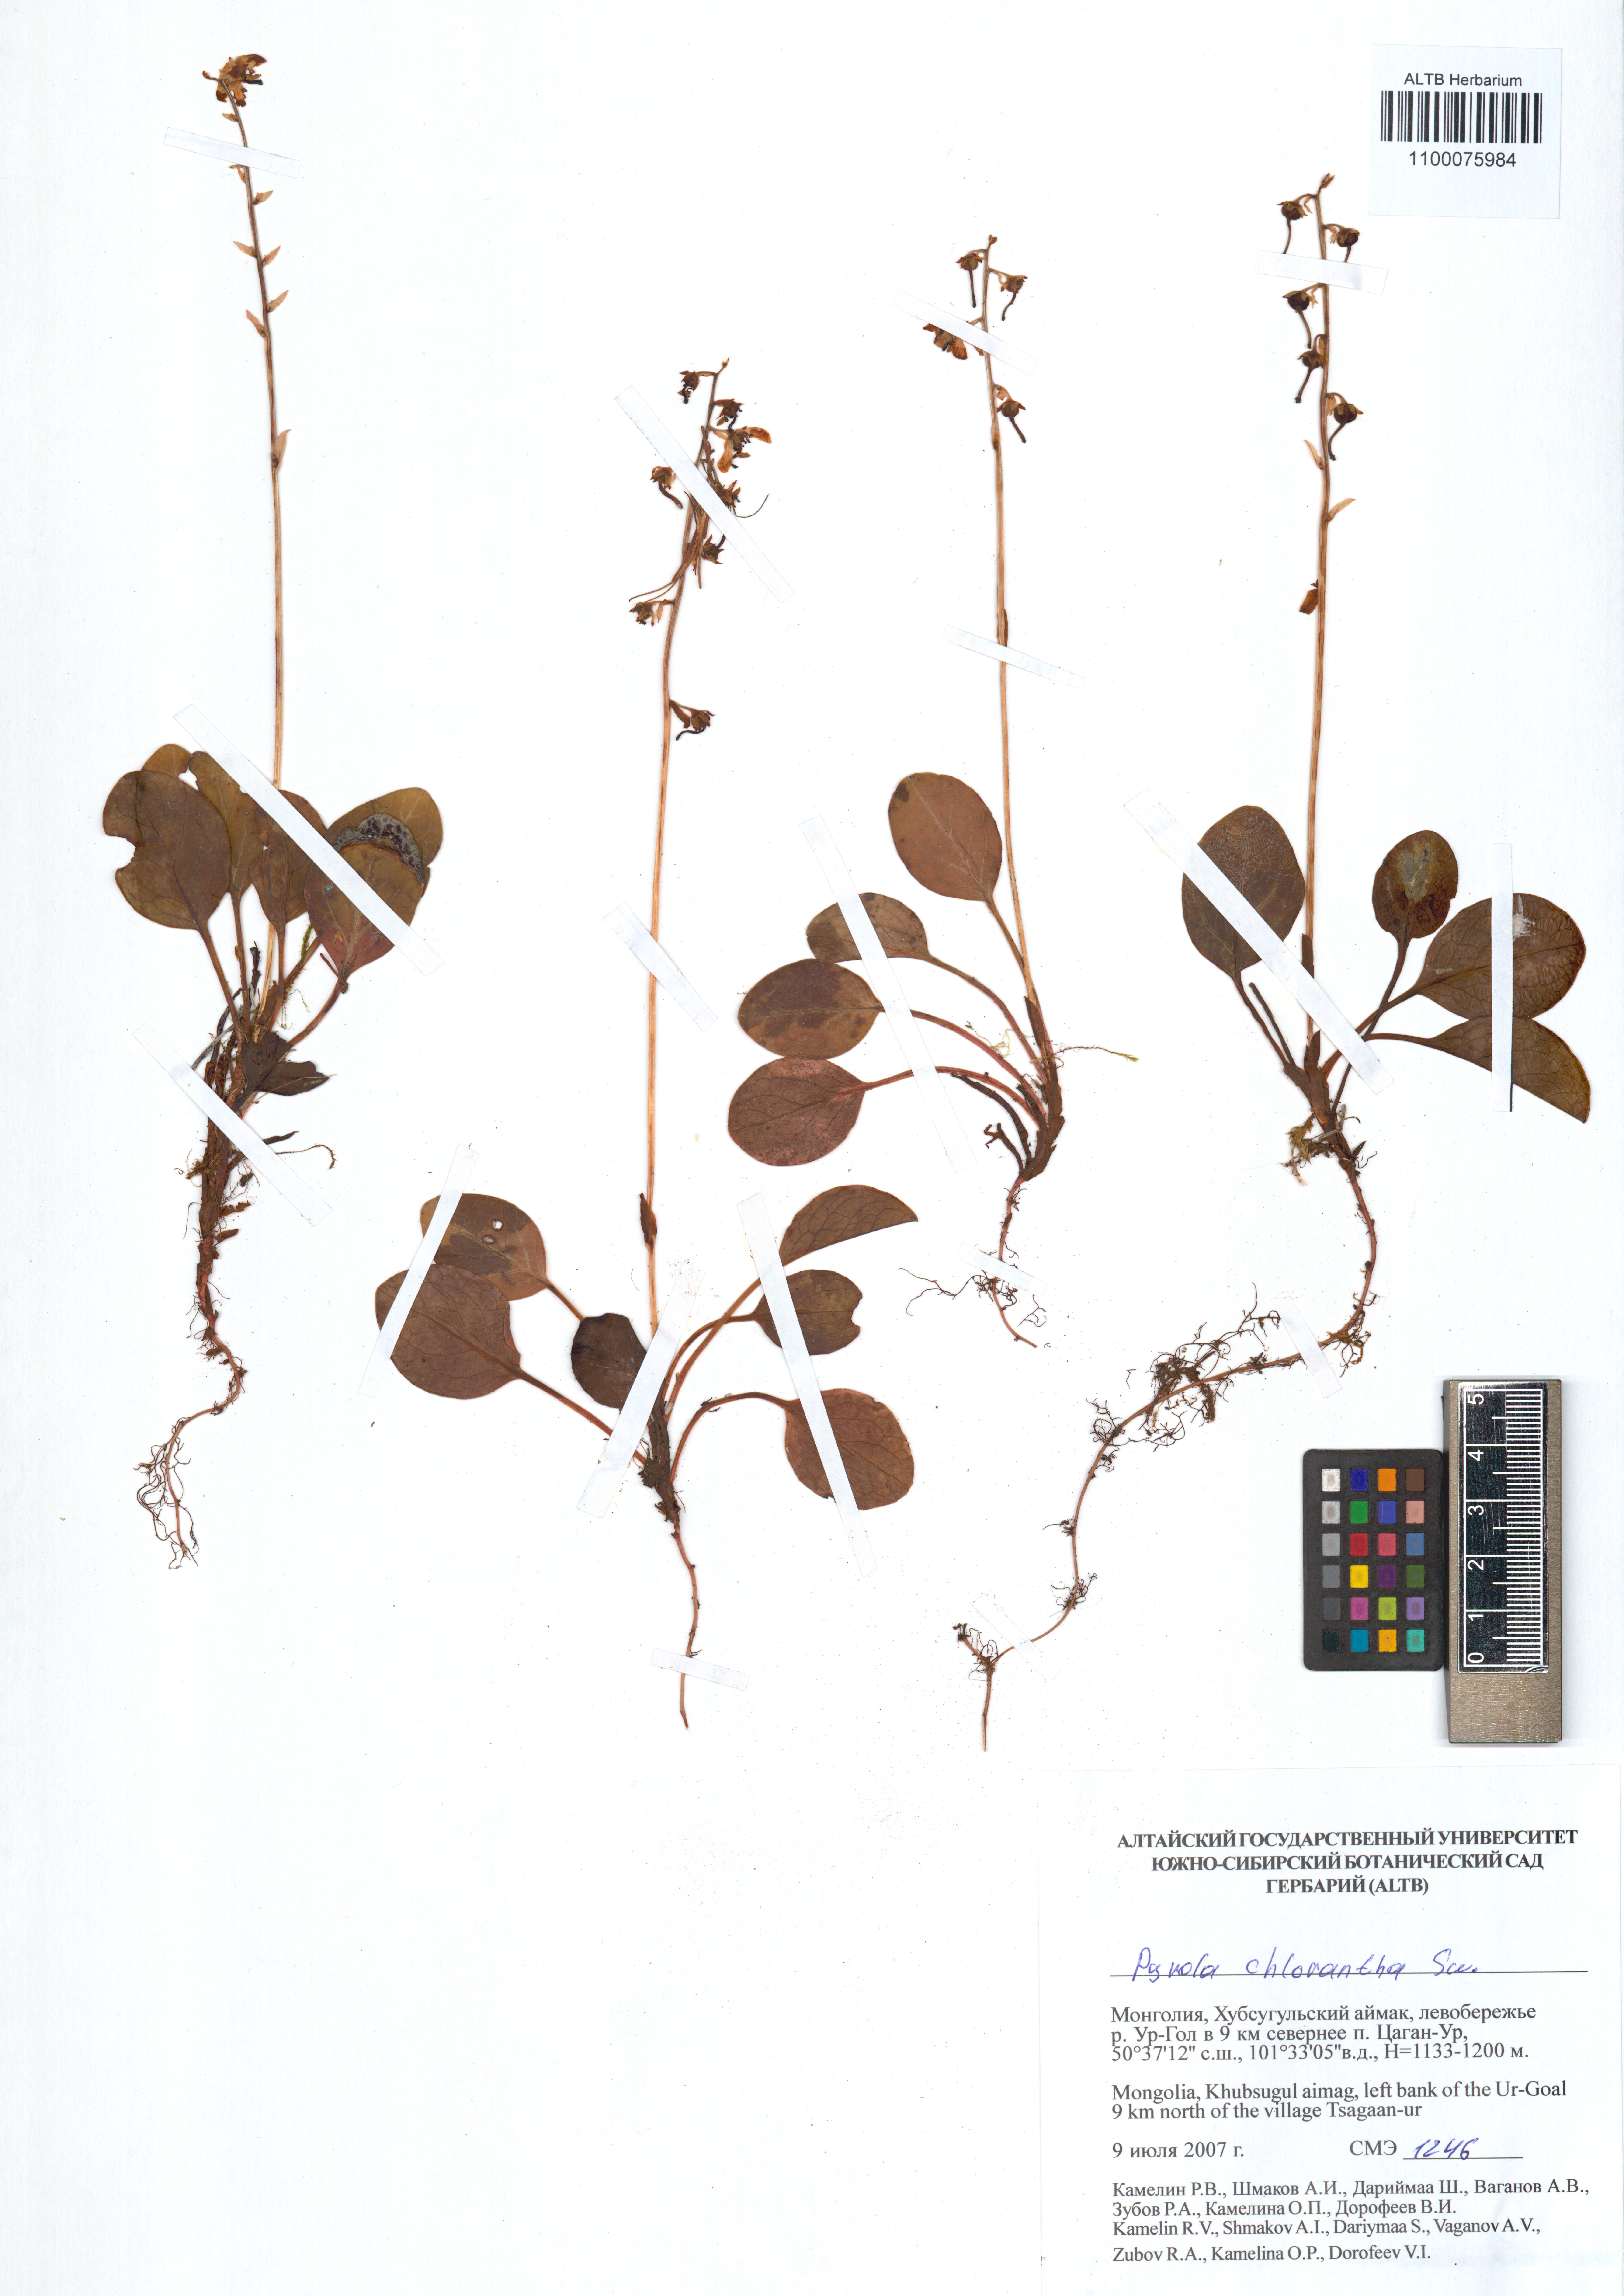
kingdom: Plantae
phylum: Tracheophyta
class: Magnoliopsida
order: Ericales
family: Ericaceae
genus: Pyrola
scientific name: Pyrola chlorantha
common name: Green wintergreen
